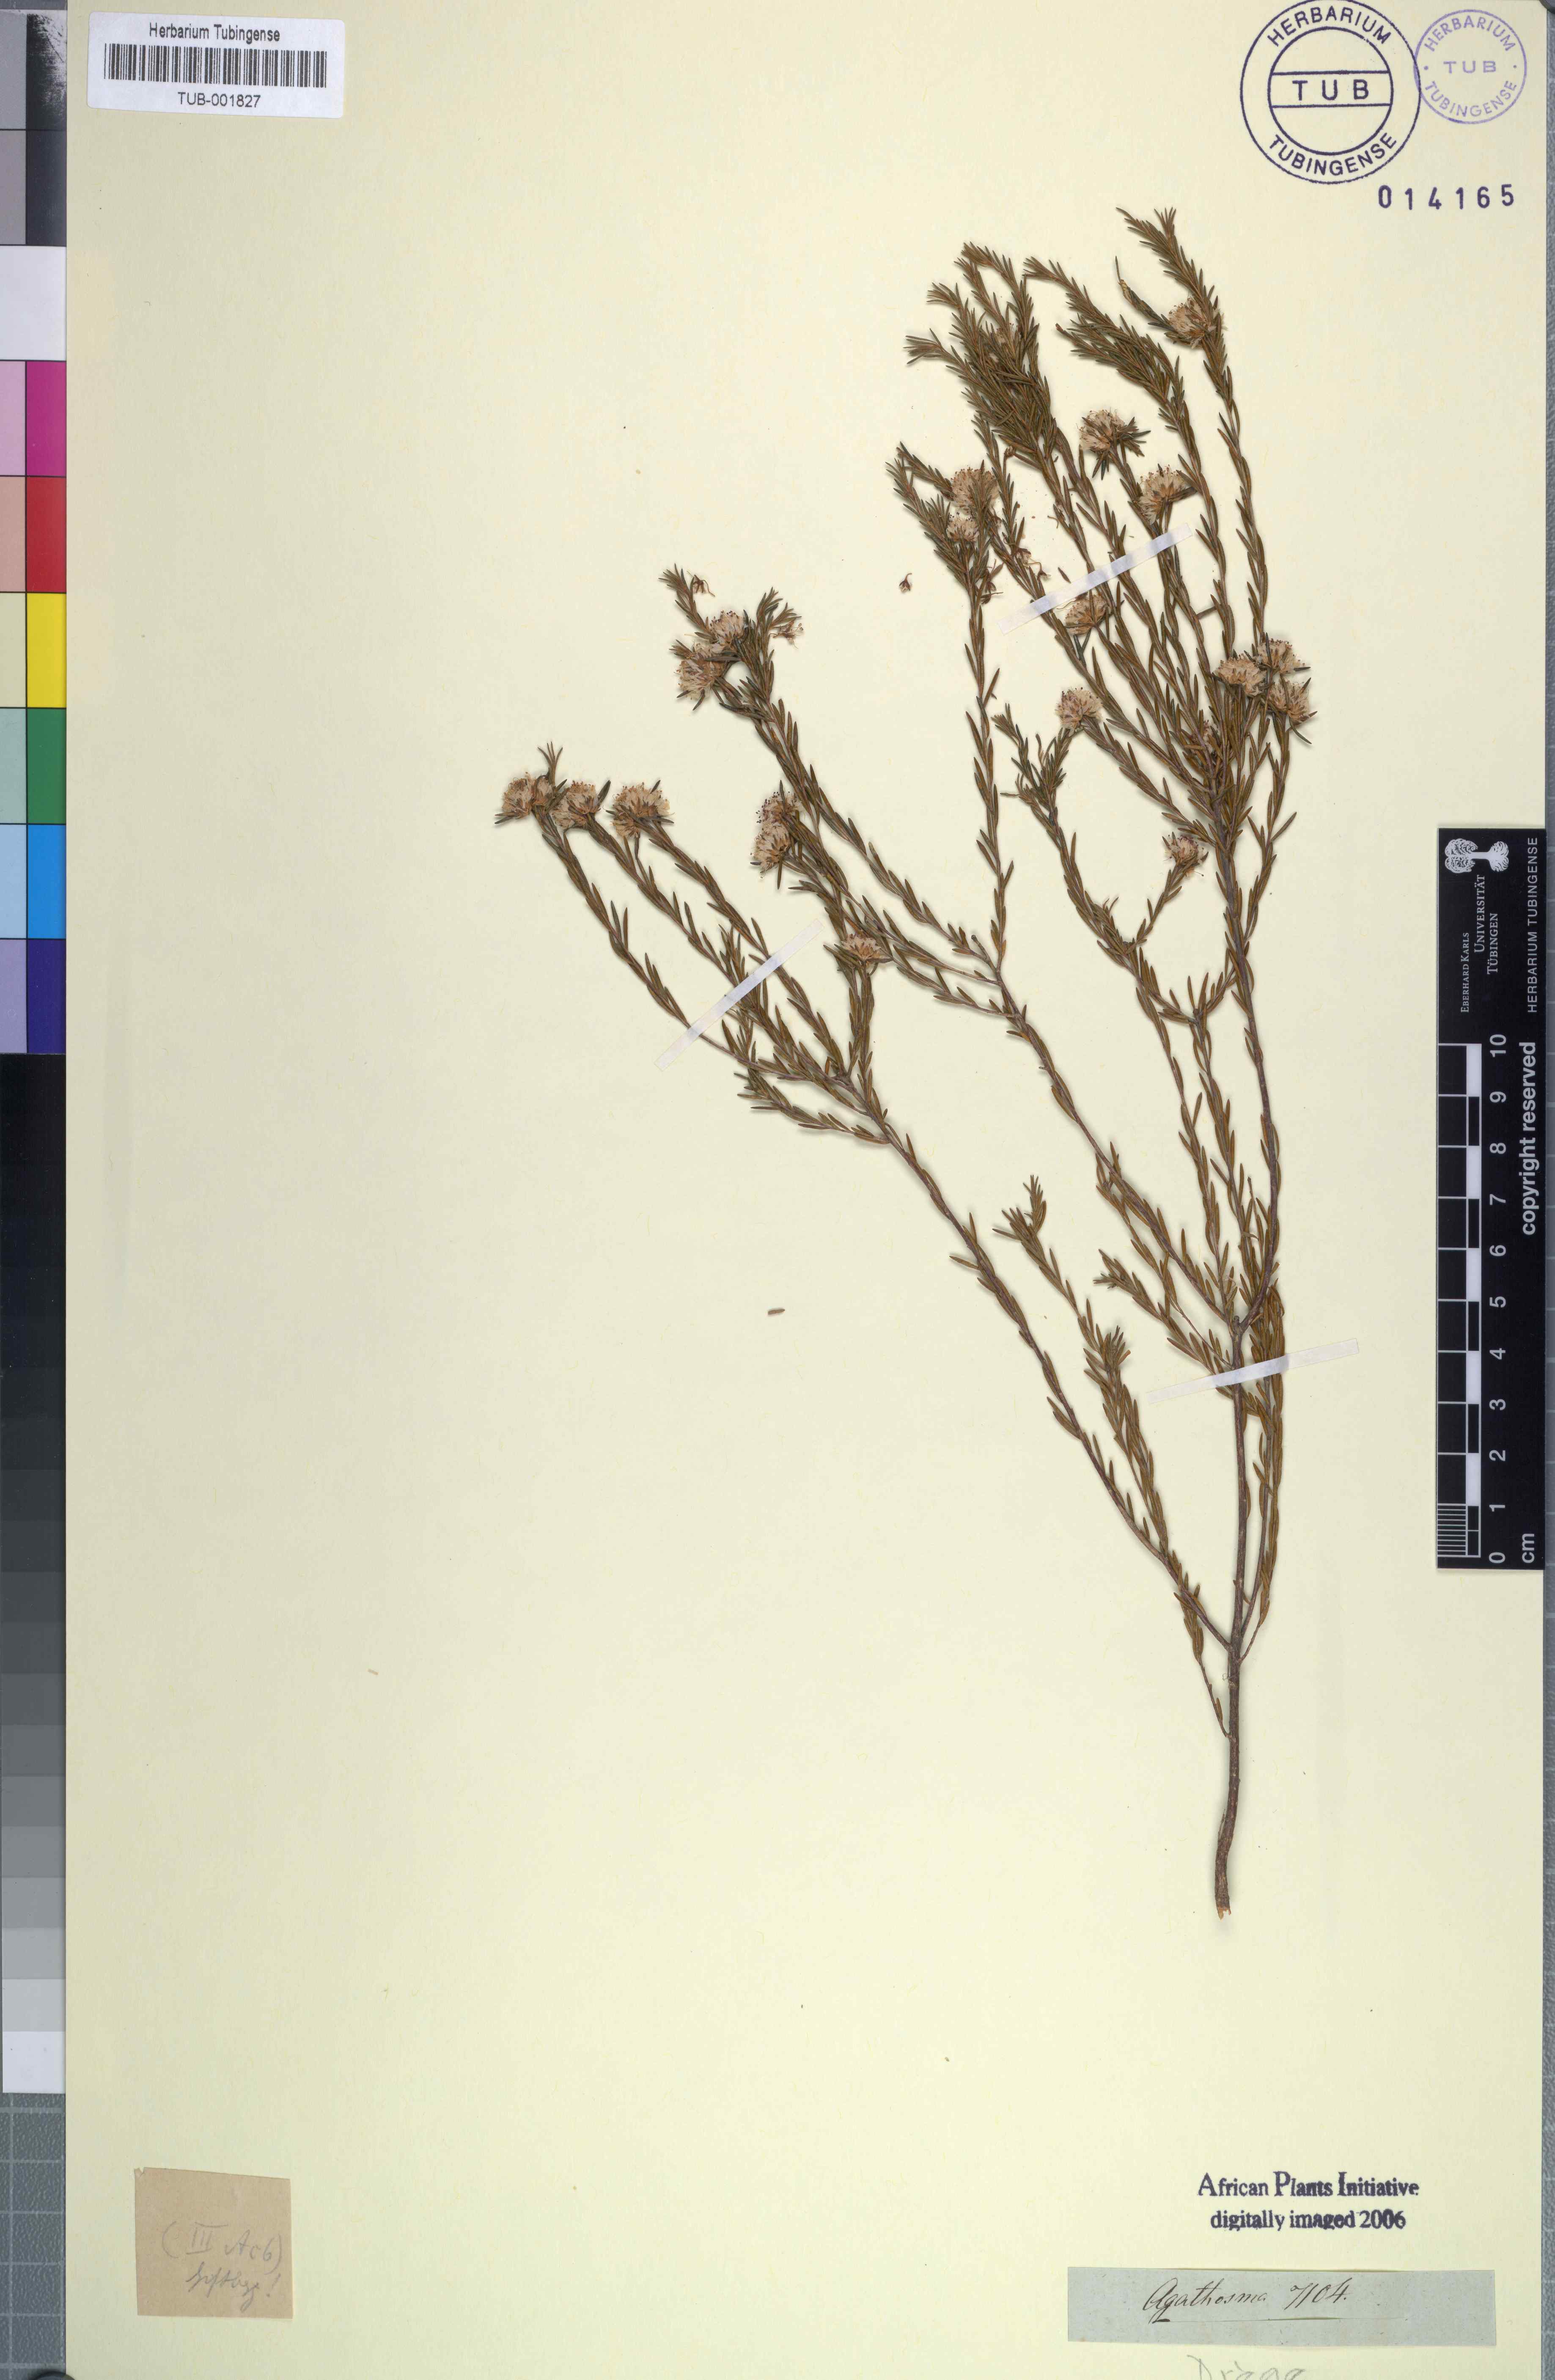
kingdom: Plantae
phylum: Tracheophyta
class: Magnoliopsida
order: Sapindales
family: Rutaceae
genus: Agathosma
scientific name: Agathosma
